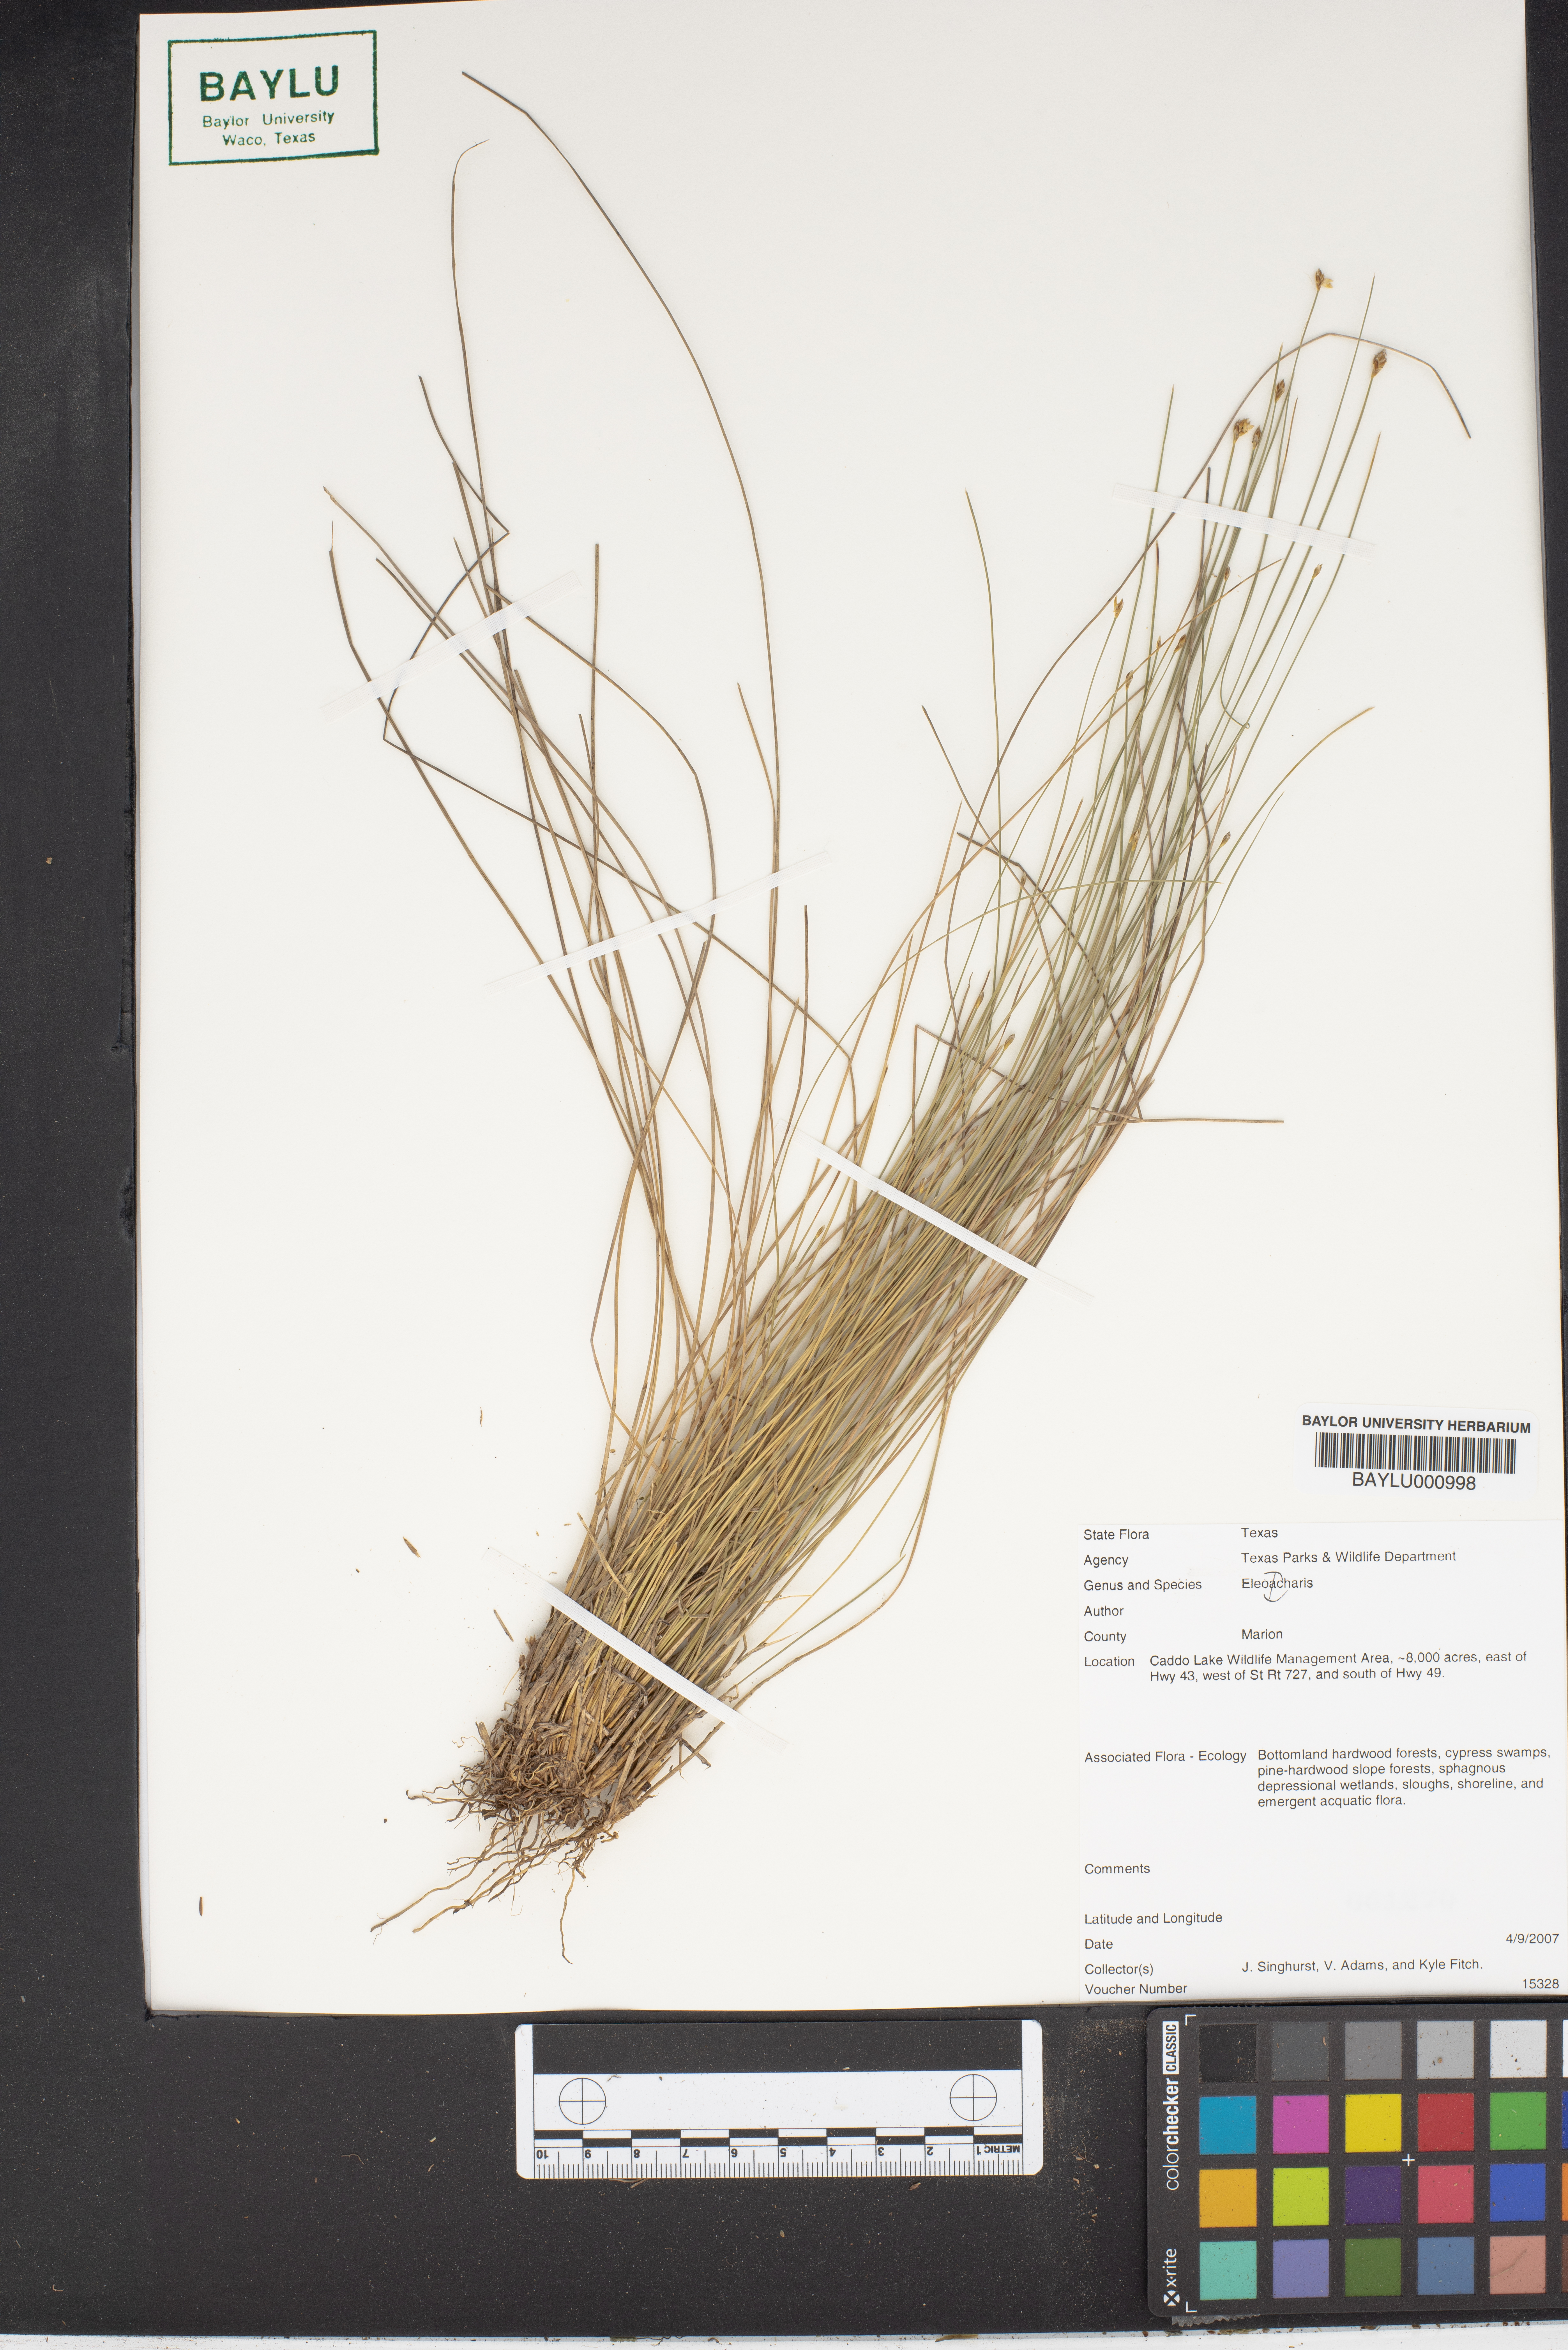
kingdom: Plantae
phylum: Tracheophyta
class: Liliopsida
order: Poales
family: Cyperaceae
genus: Eleocharis
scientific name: Eleocharis
